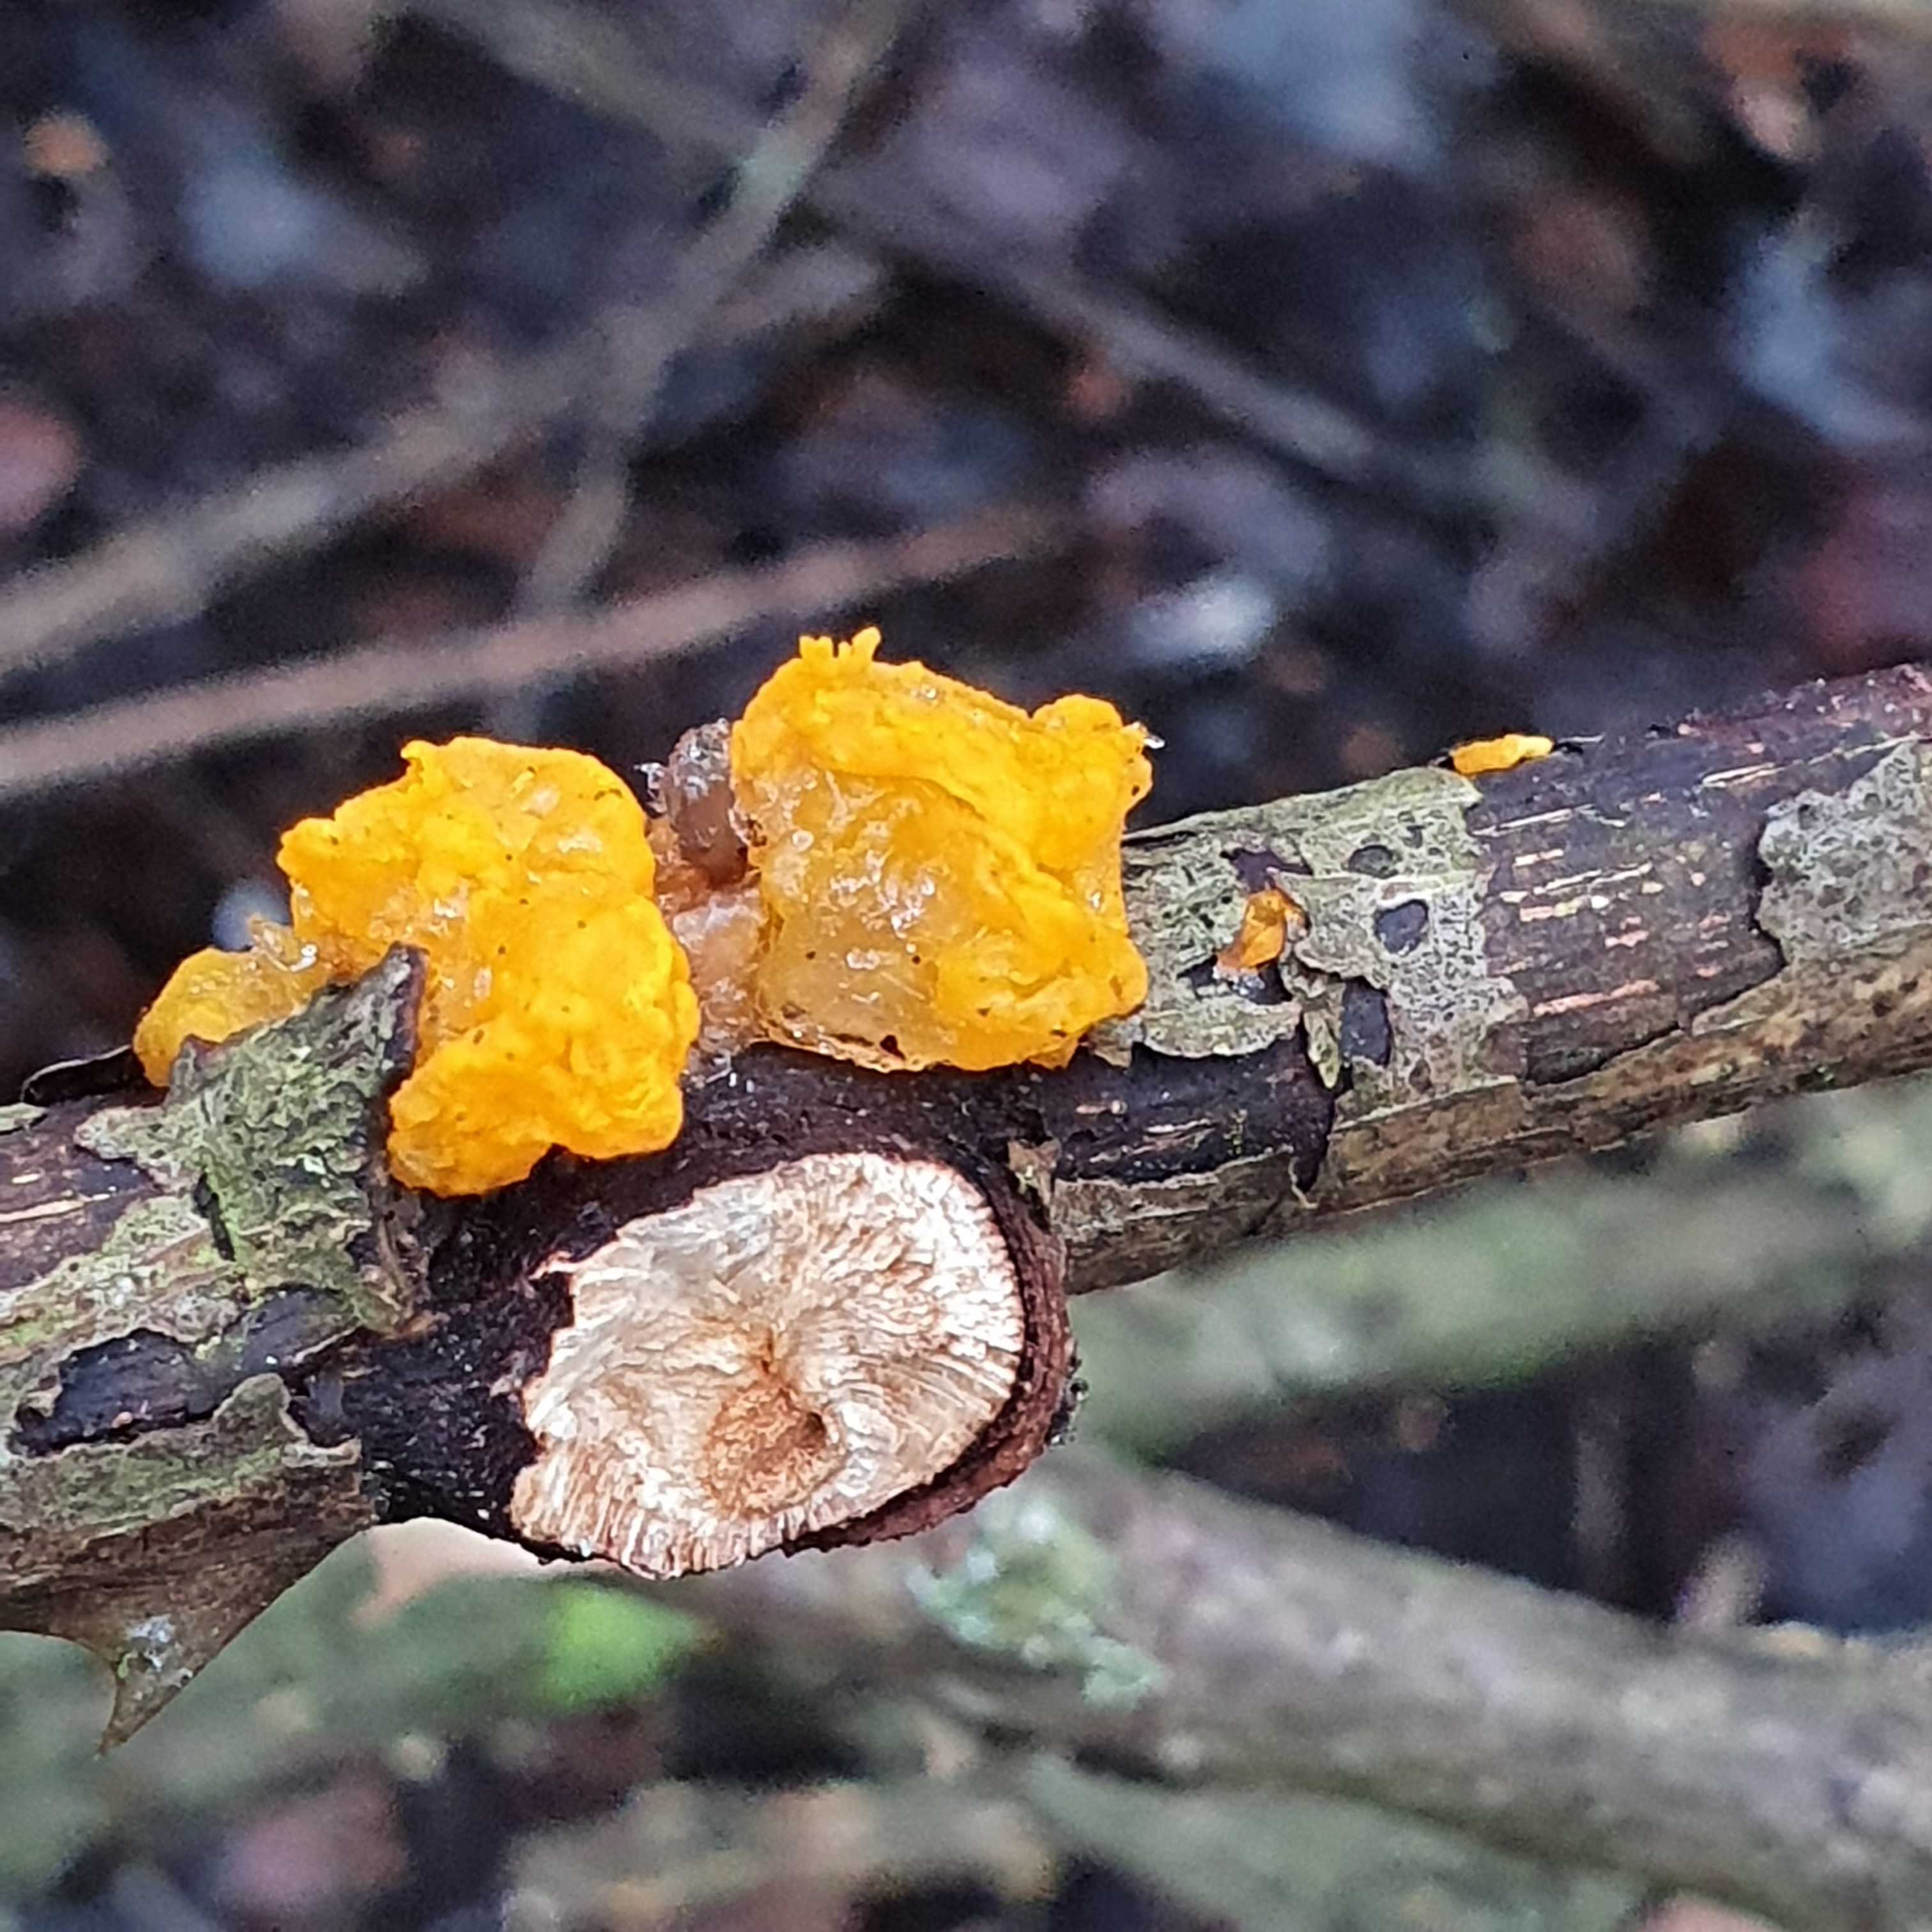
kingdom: Fungi
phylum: Basidiomycota
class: Tremellomycetes
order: Tremellales
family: Tremellaceae
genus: Tremella
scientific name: Tremella mesenterica
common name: gul bævresvamp
